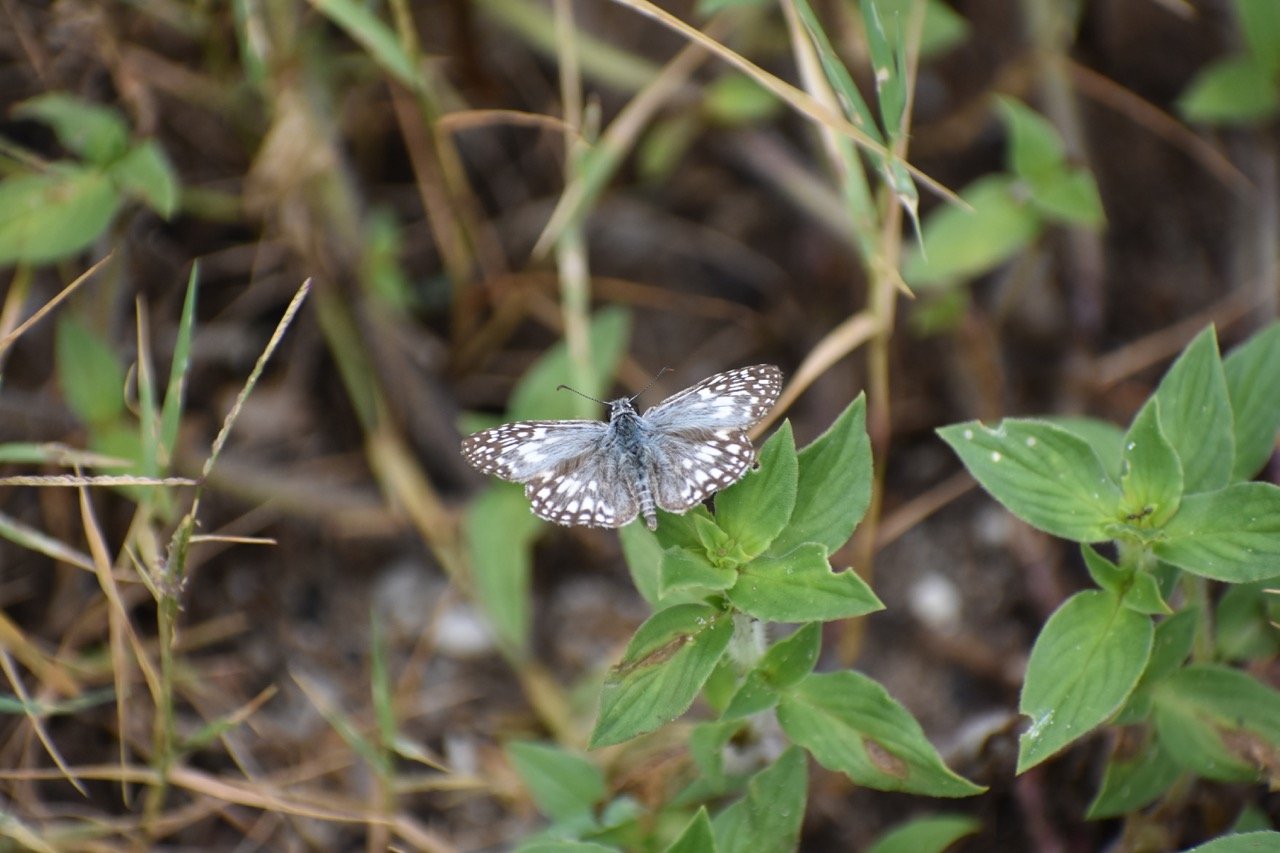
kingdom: Animalia
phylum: Arthropoda
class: Insecta
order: Lepidoptera
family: Hesperiidae
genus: Pyrgus
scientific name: Pyrgus oileus
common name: Tropical Checkered-Skipper
